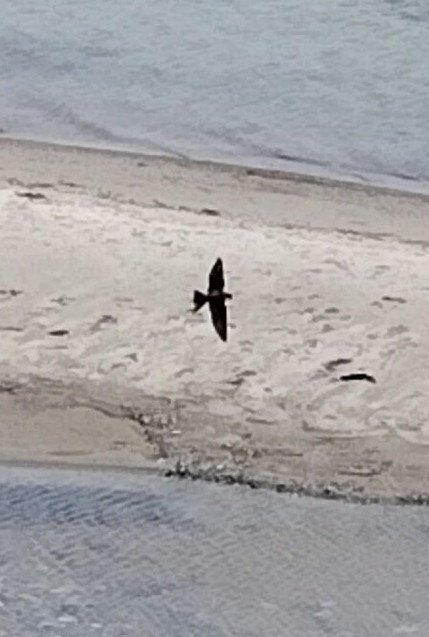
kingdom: Animalia
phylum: Chordata
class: Aves
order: Passeriformes
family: Hirundinidae
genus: Riparia
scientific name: Riparia riparia
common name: Digesvale
